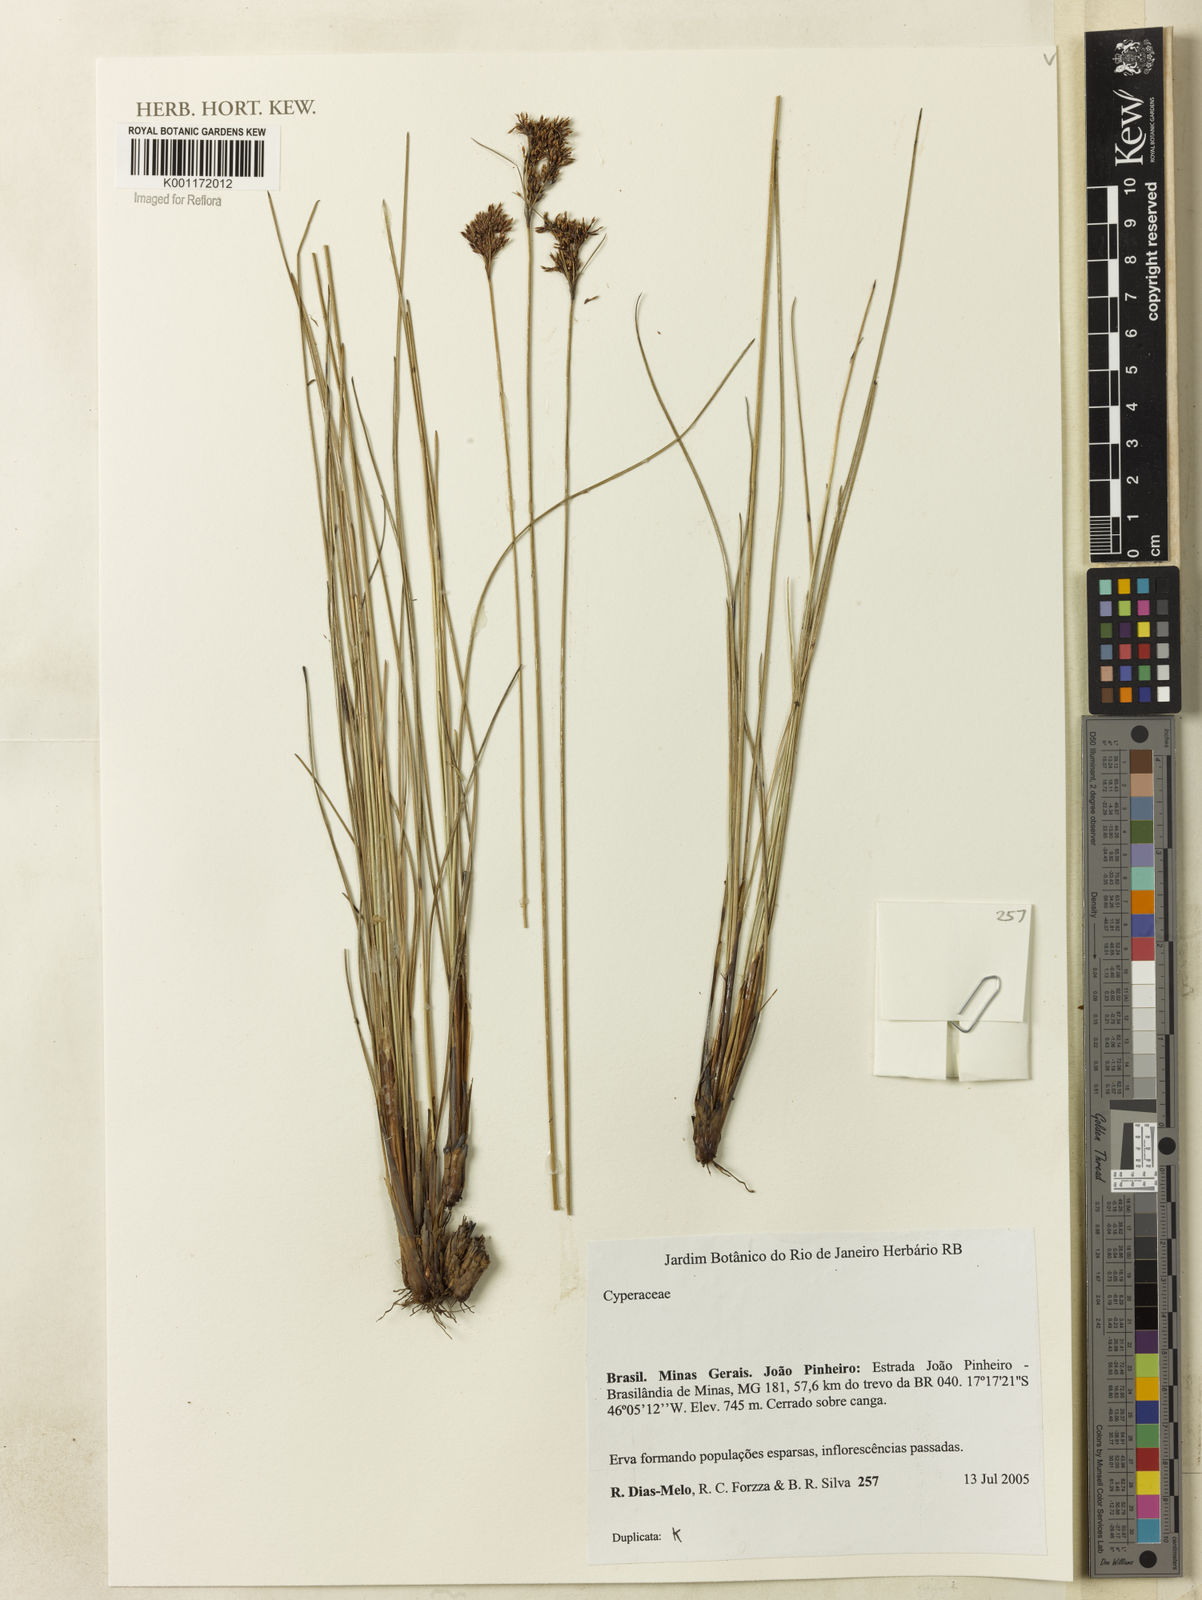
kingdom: Plantae
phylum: Tracheophyta
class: Liliopsida
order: Poales
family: Cyperaceae
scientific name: Cyperaceae
